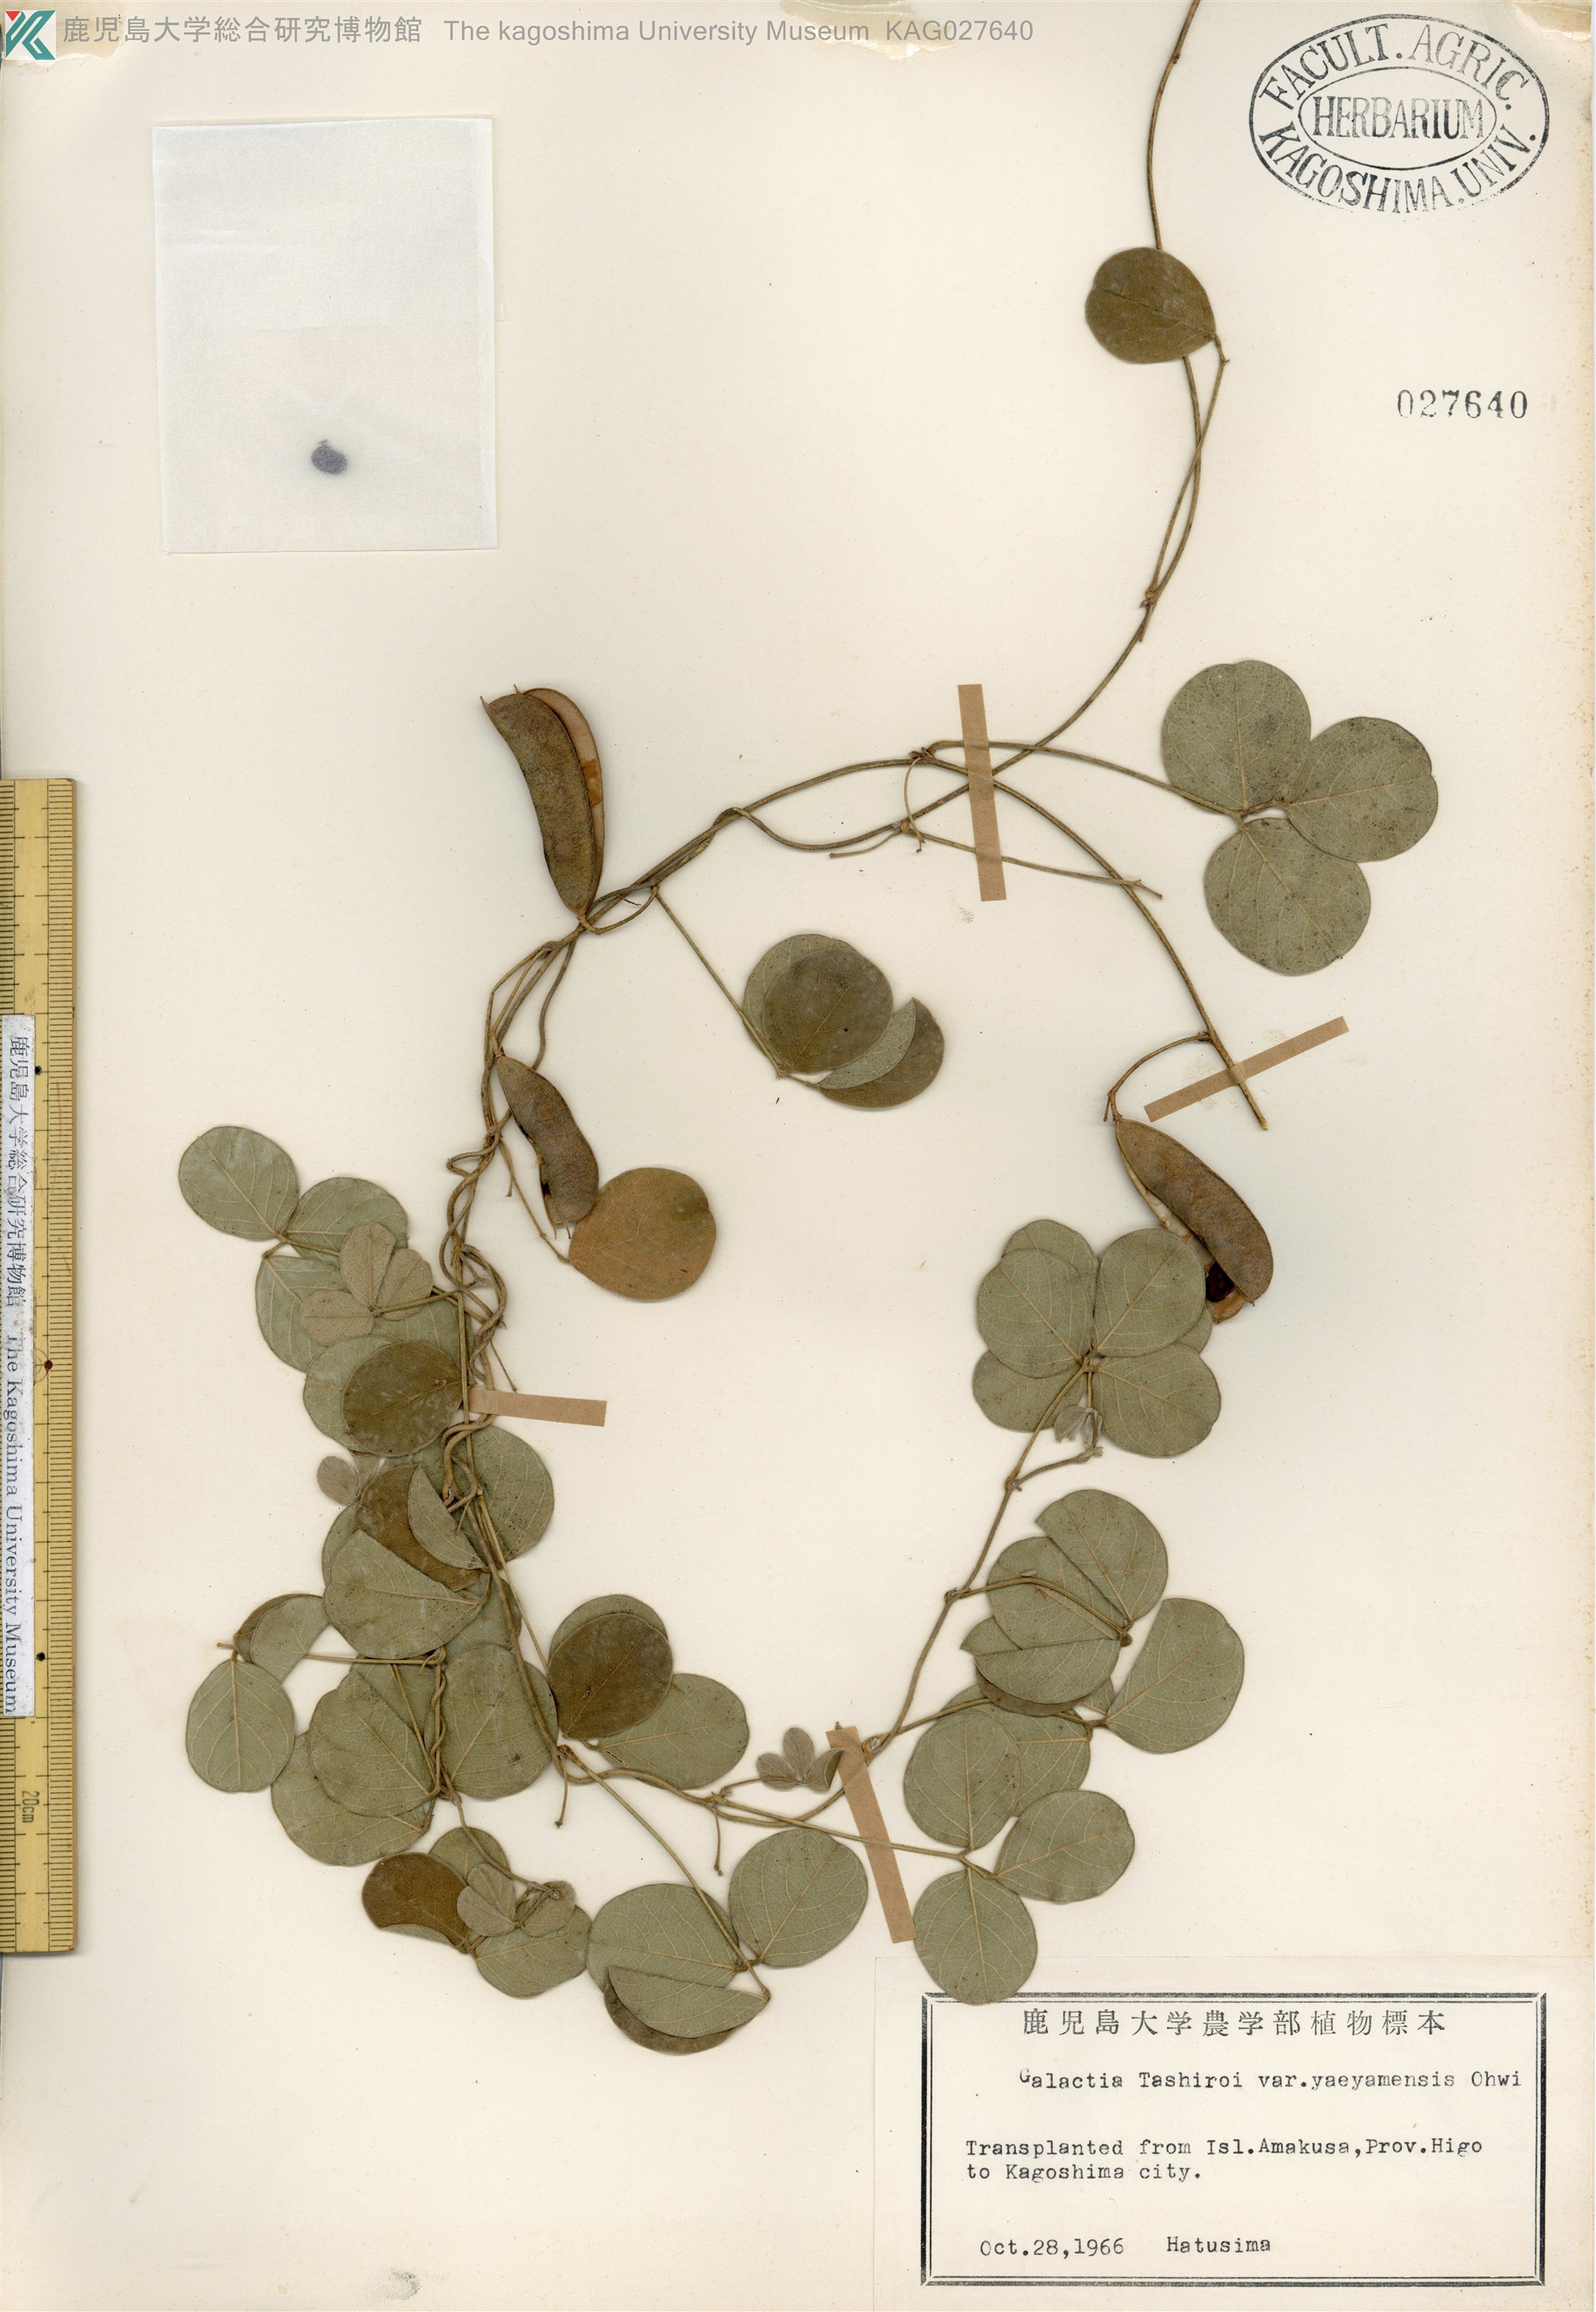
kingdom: Plantae
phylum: Tracheophyta
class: Magnoliopsida
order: Fabales
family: Fabaceae
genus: Galactia
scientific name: Galactia tashiroi
